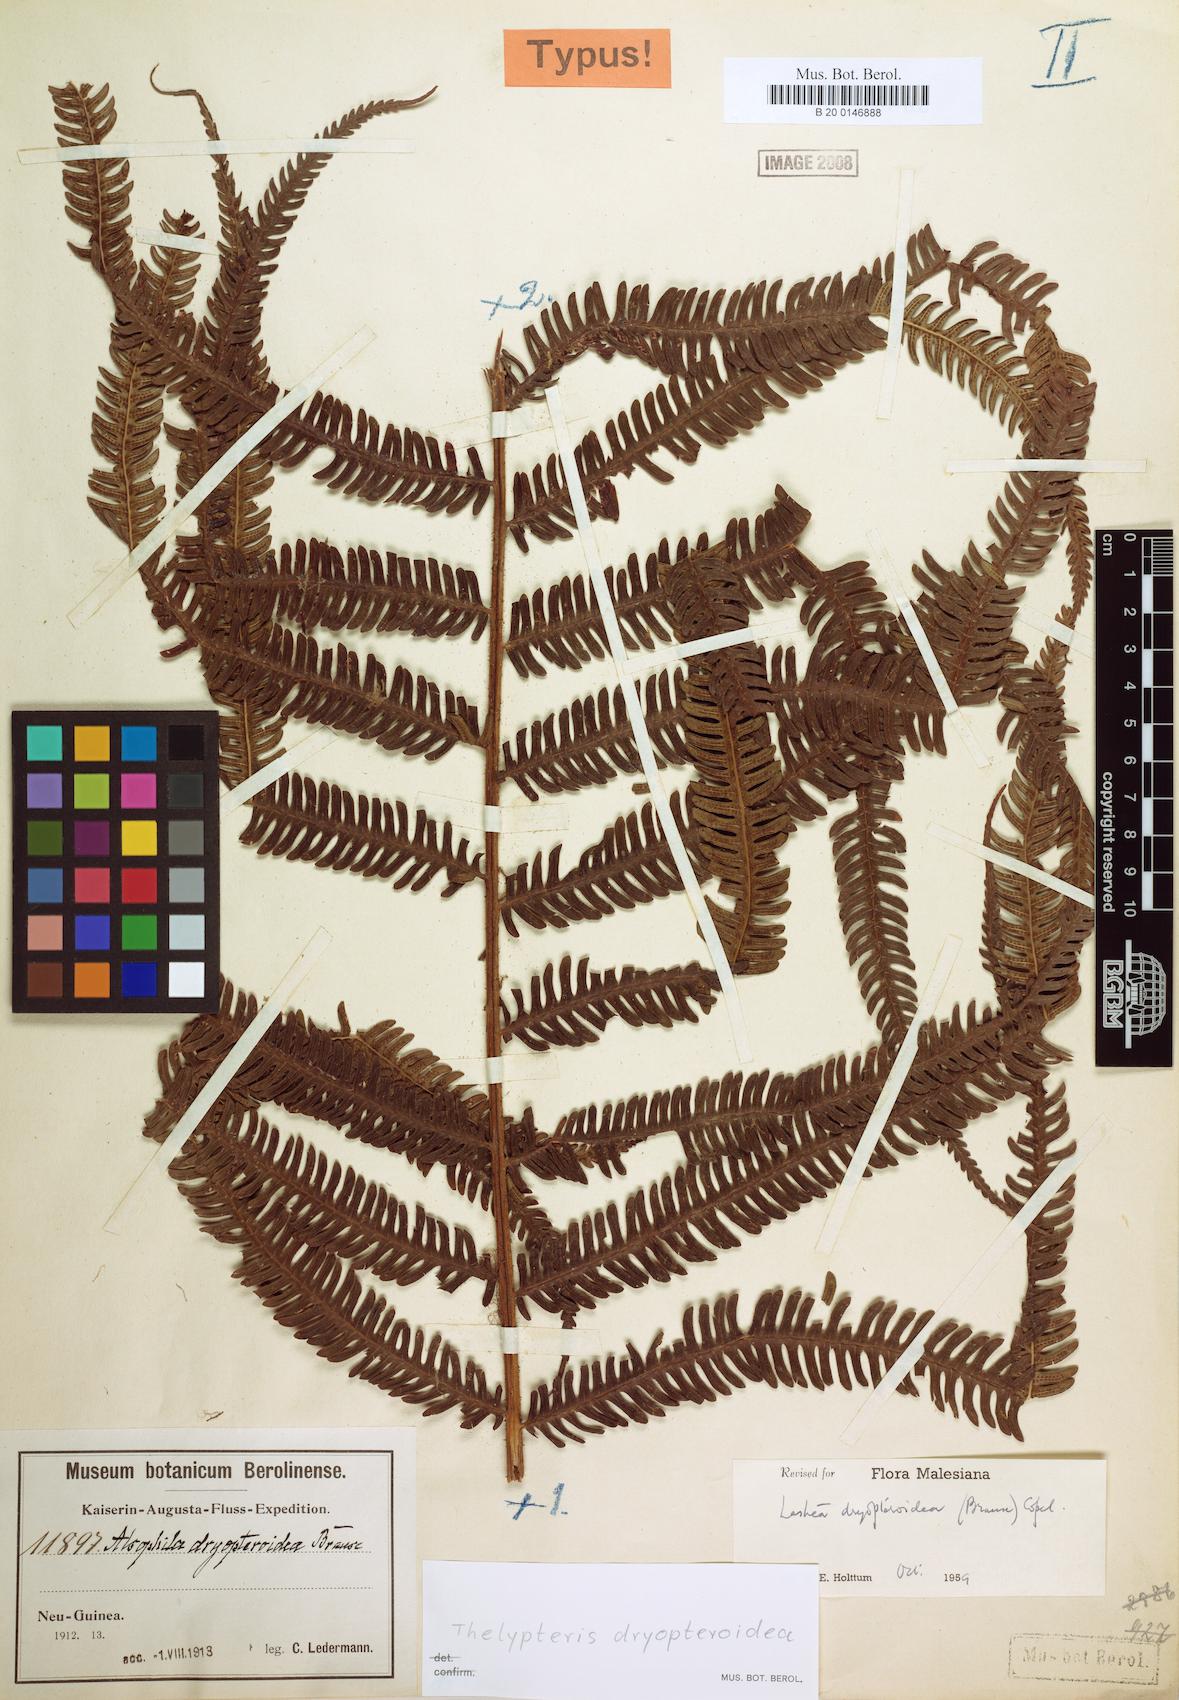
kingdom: Plantae
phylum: Tracheophyta
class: Polypodiopsida
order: Polypodiales
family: Thelypteridaceae
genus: Plesioneuron
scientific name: Plesioneuron dryopteroideum
